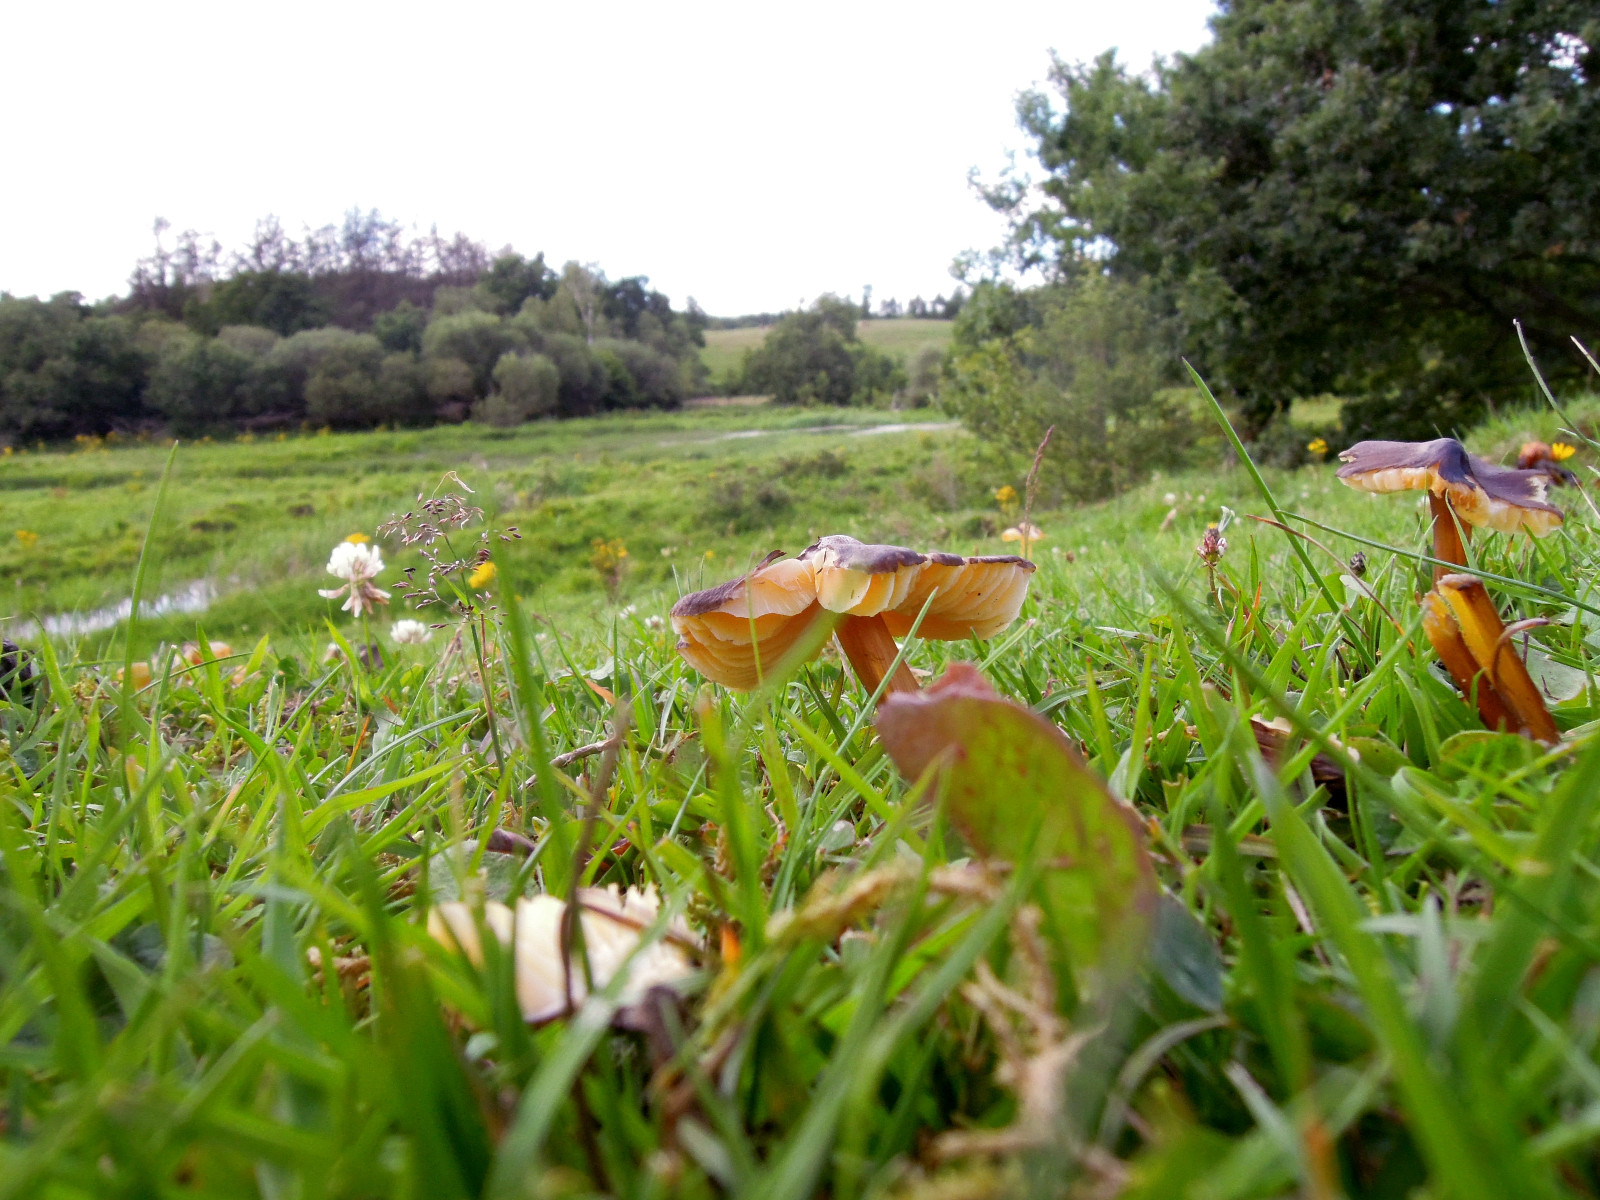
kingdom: Fungi
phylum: Basidiomycota
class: Agaricomycetes
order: Agaricales
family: Hygrophoraceae
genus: Hygrocybe
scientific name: Hygrocybe spadicea
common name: daddelbrun vokshat
